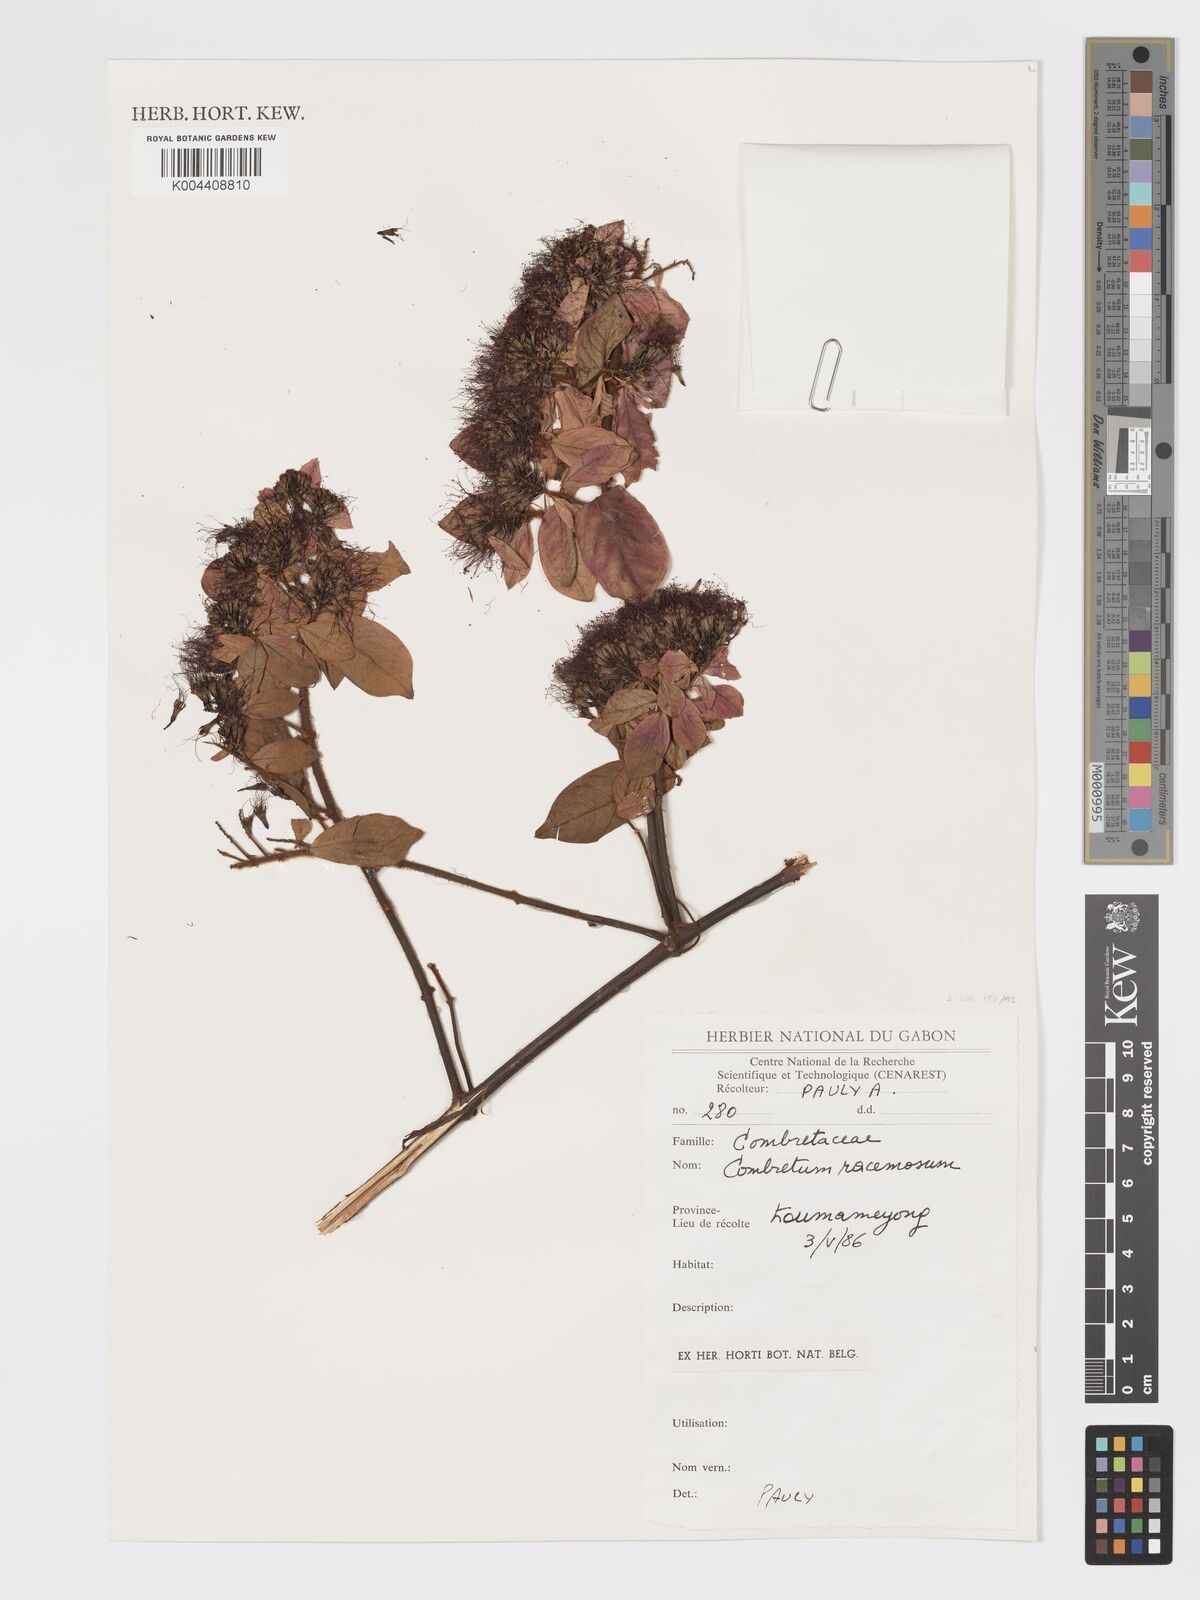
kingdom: Plantae
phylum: Tracheophyta
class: Magnoliopsida
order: Myrtales
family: Combretaceae
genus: Combretum
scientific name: Combretum racemosum
